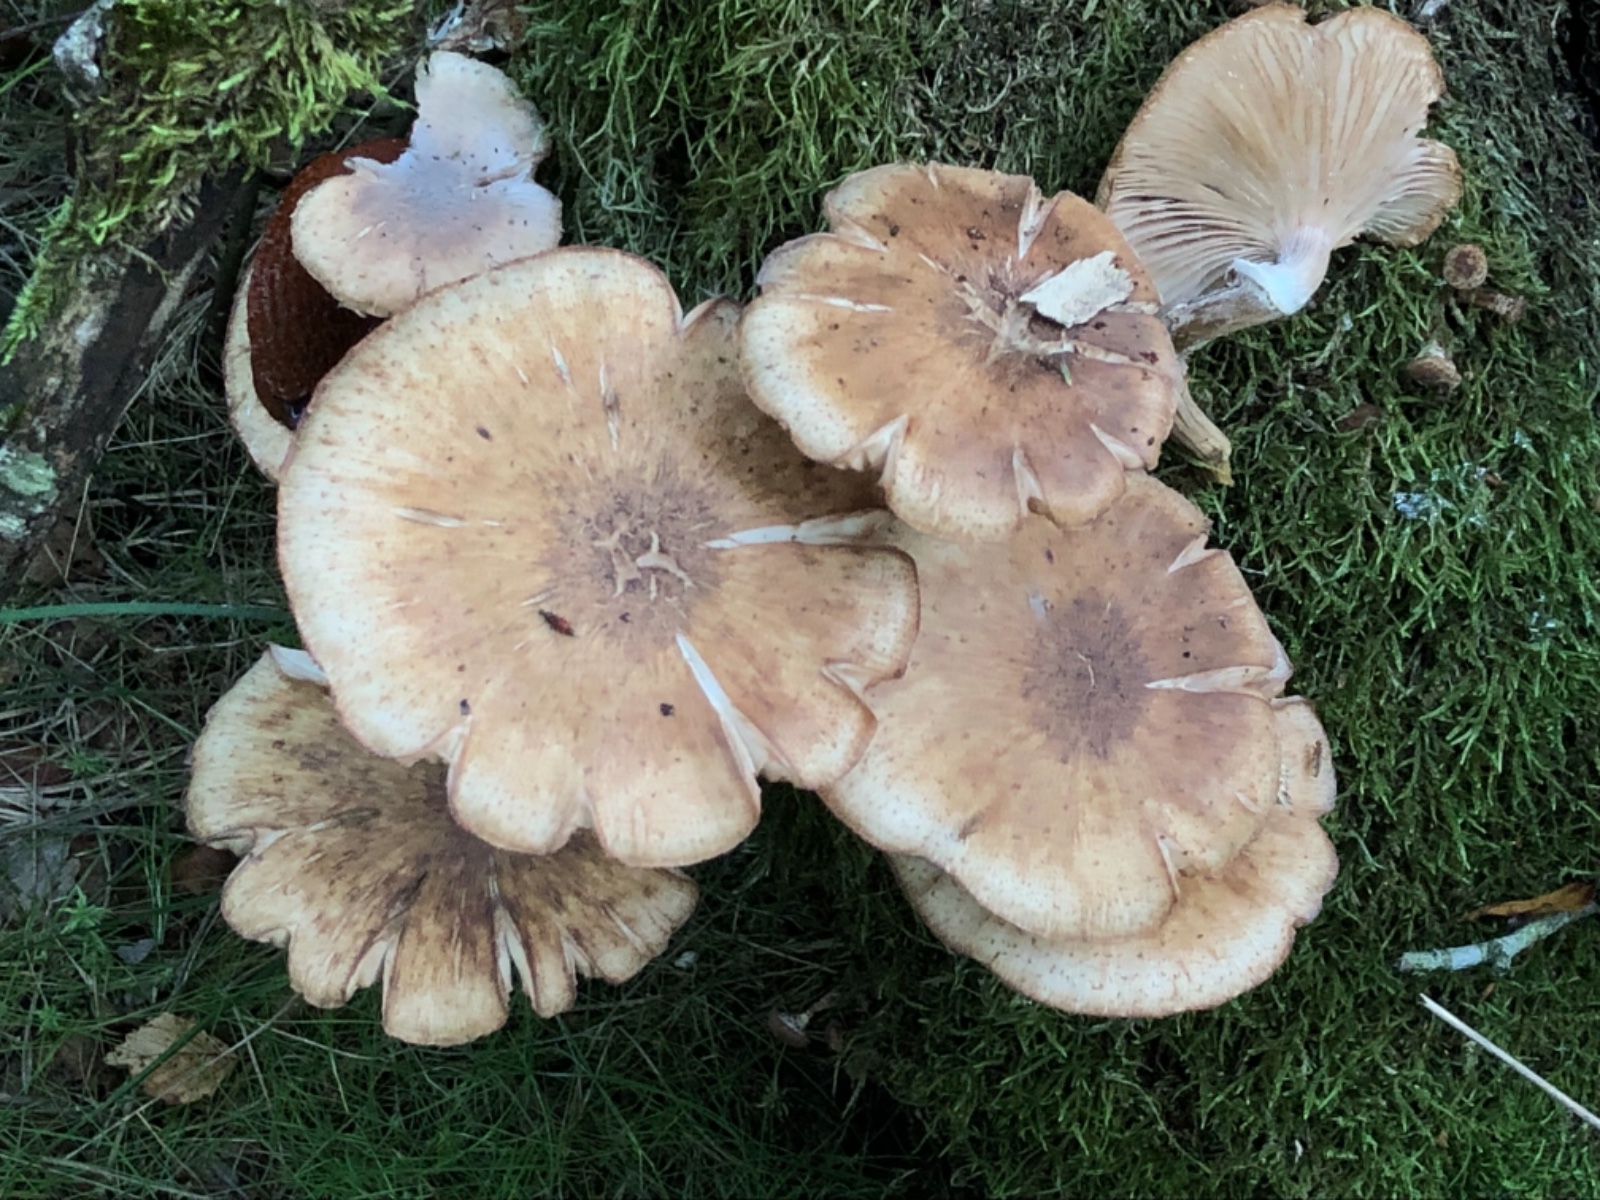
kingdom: Fungi
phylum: Basidiomycota
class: Agaricomycetes
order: Agaricales
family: Physalacriaceae
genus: Armillaria
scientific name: Armillaria borealis
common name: nordlig honningsvamp
